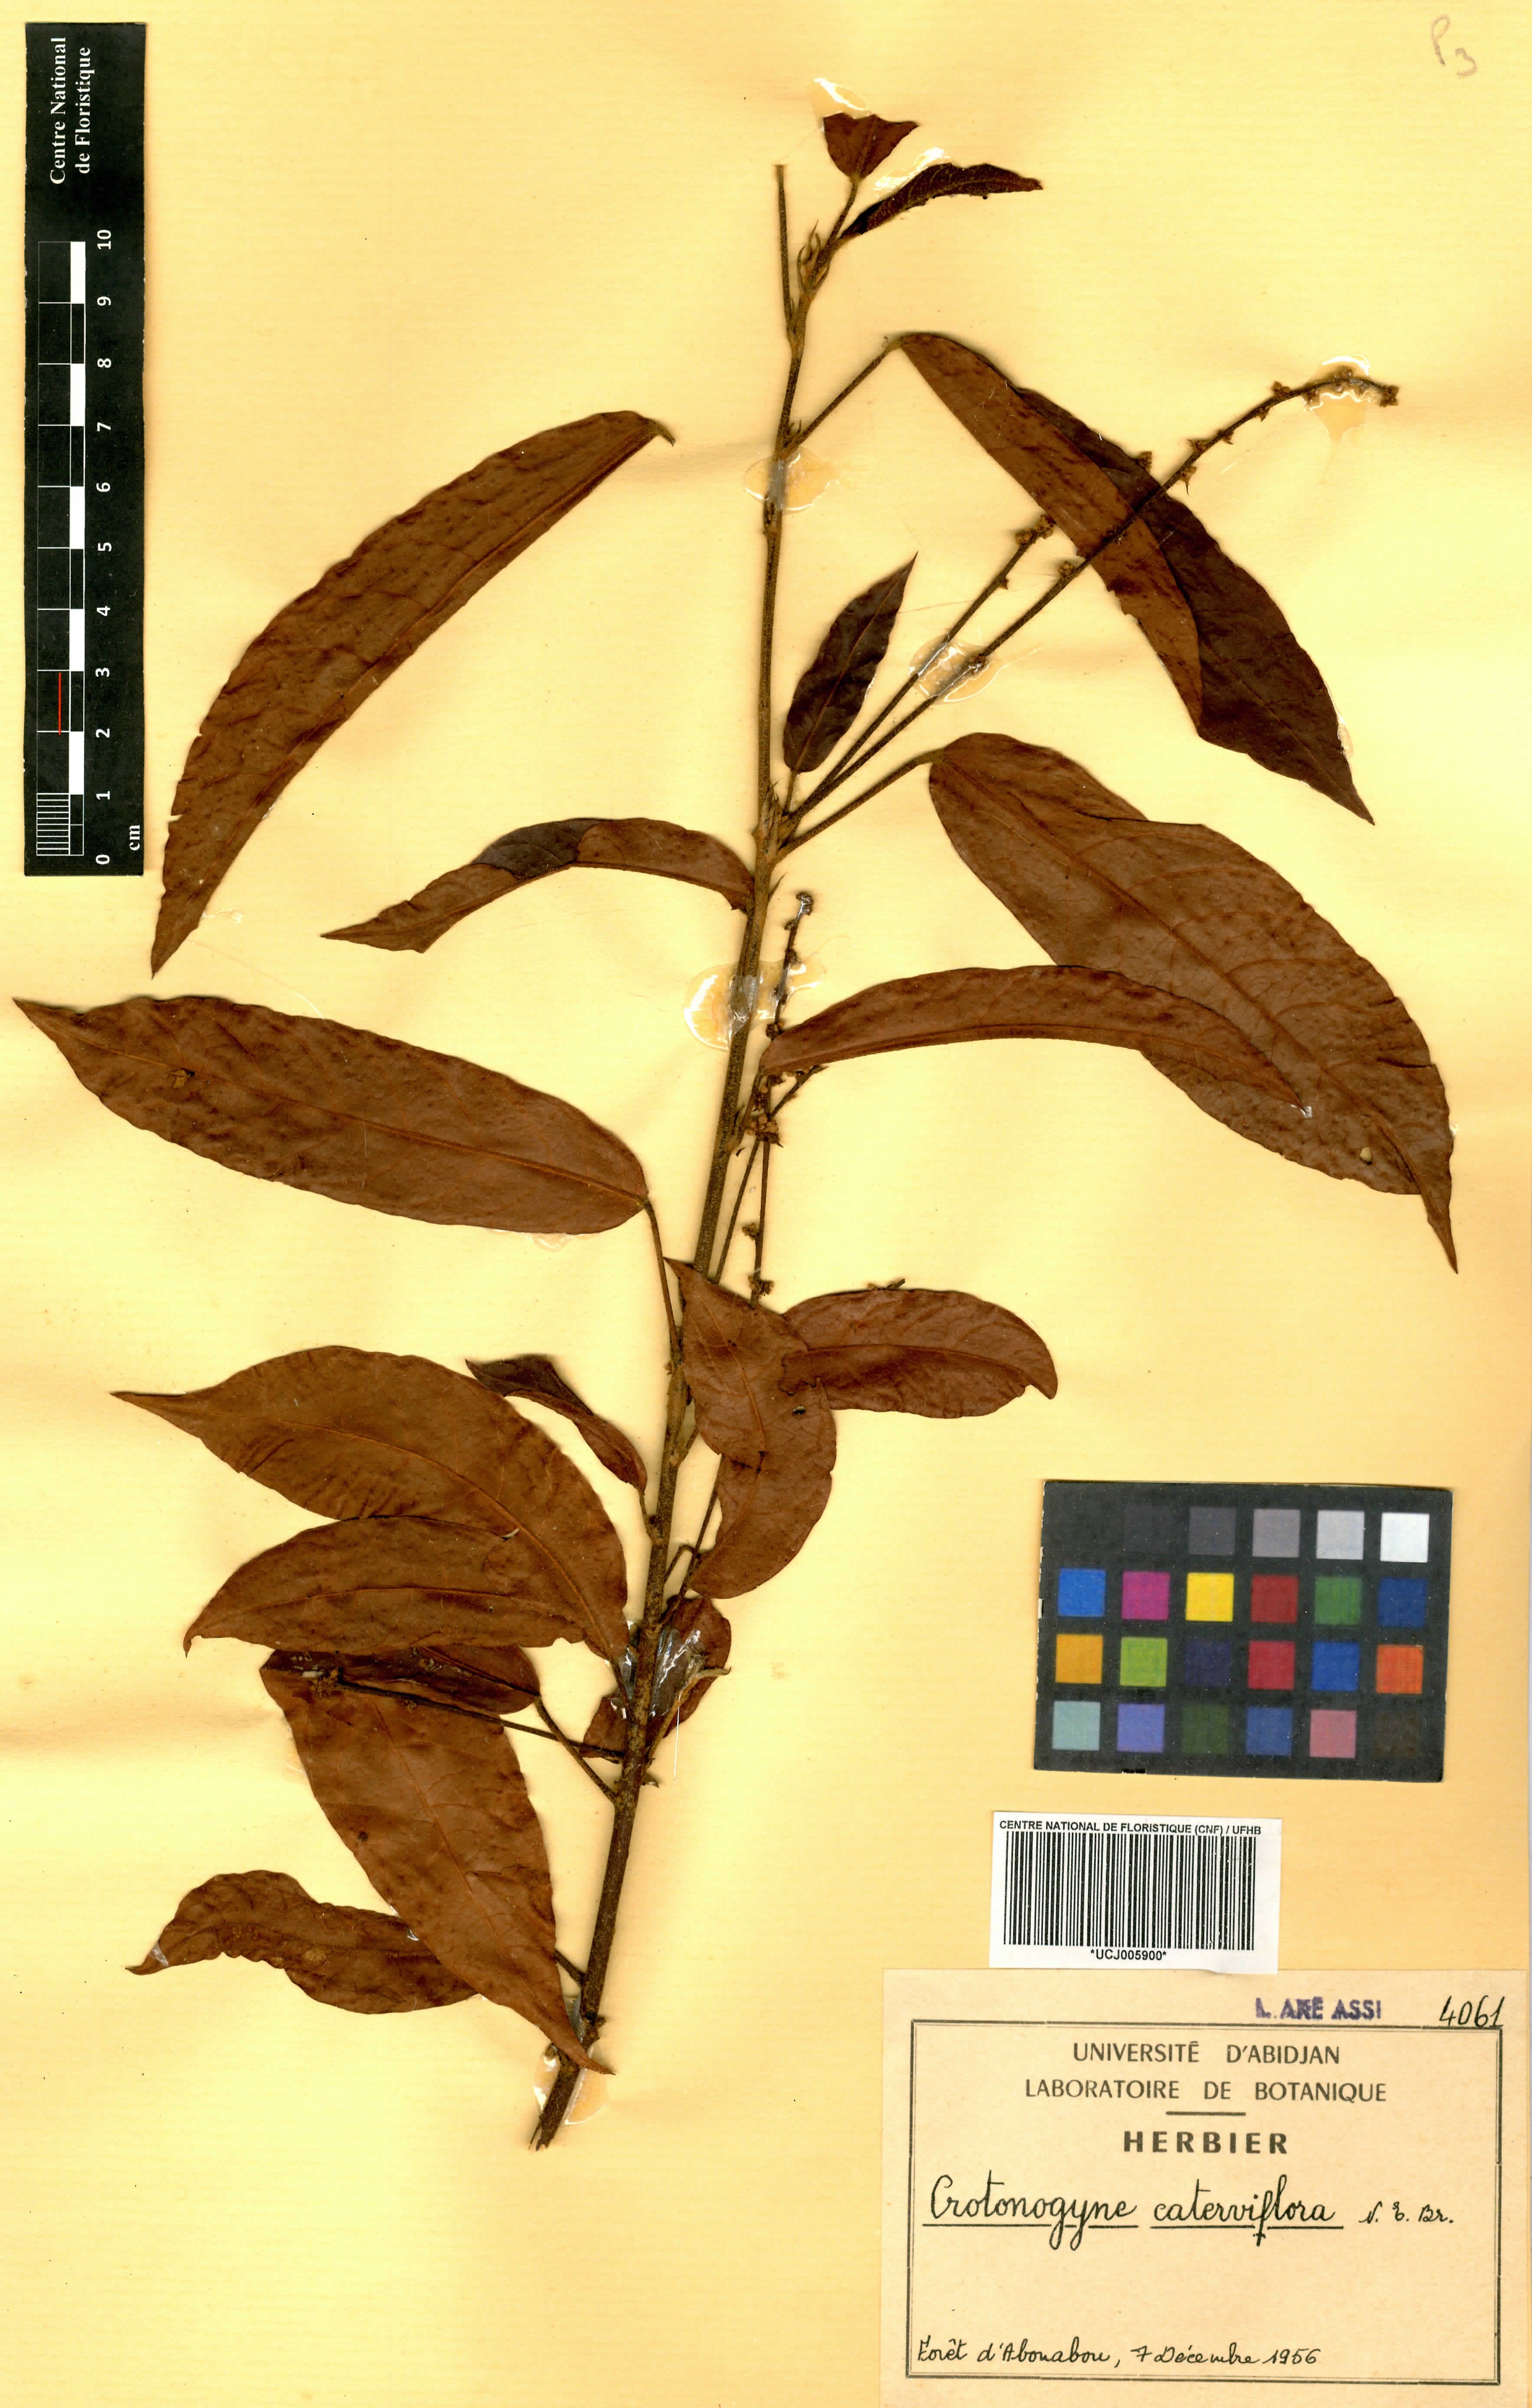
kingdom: Plantae
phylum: Tracheophyta
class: Magnoliopsida
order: Malpighiales
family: Euphorbiaceae
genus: Crotonogyne
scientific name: Crotonogyne caterviflora
